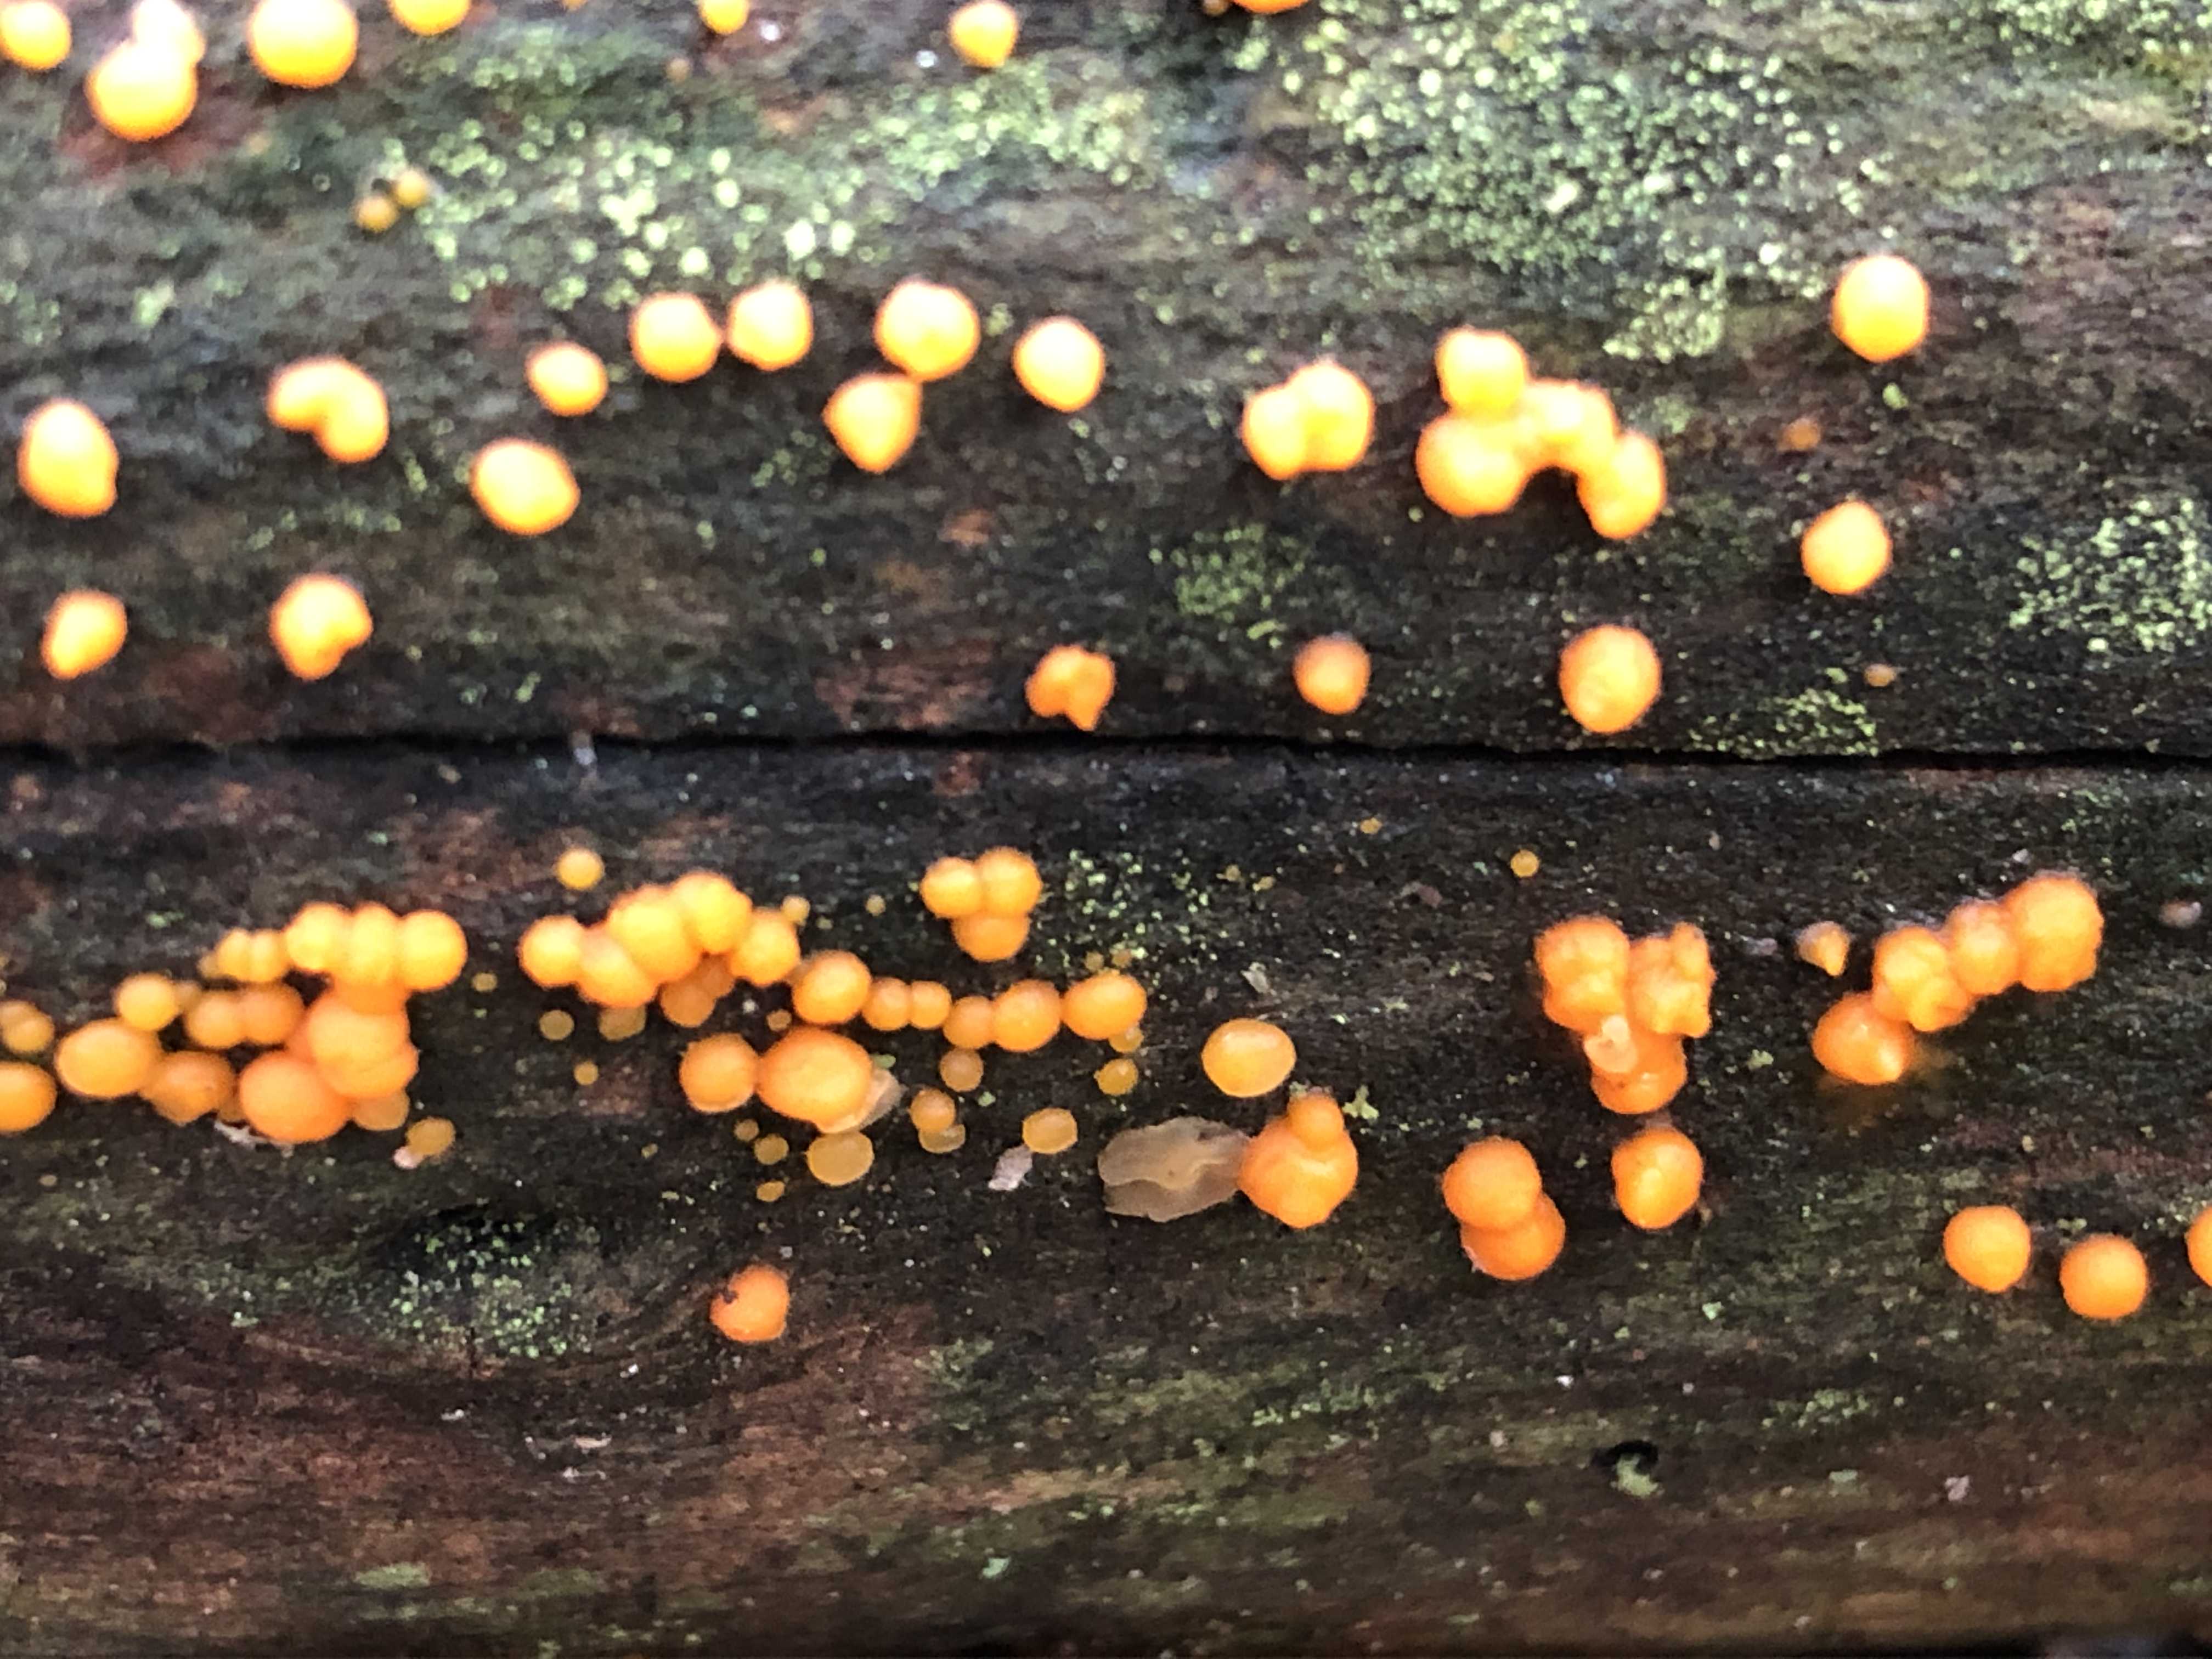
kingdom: Fungi
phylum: Basidiomycota
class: Dacrymycetes
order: Dacrymycetales
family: Dacrymycetaceae
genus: Dacrymyces
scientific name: Dacrymyces stillatus
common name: almindelig tåresvamp
